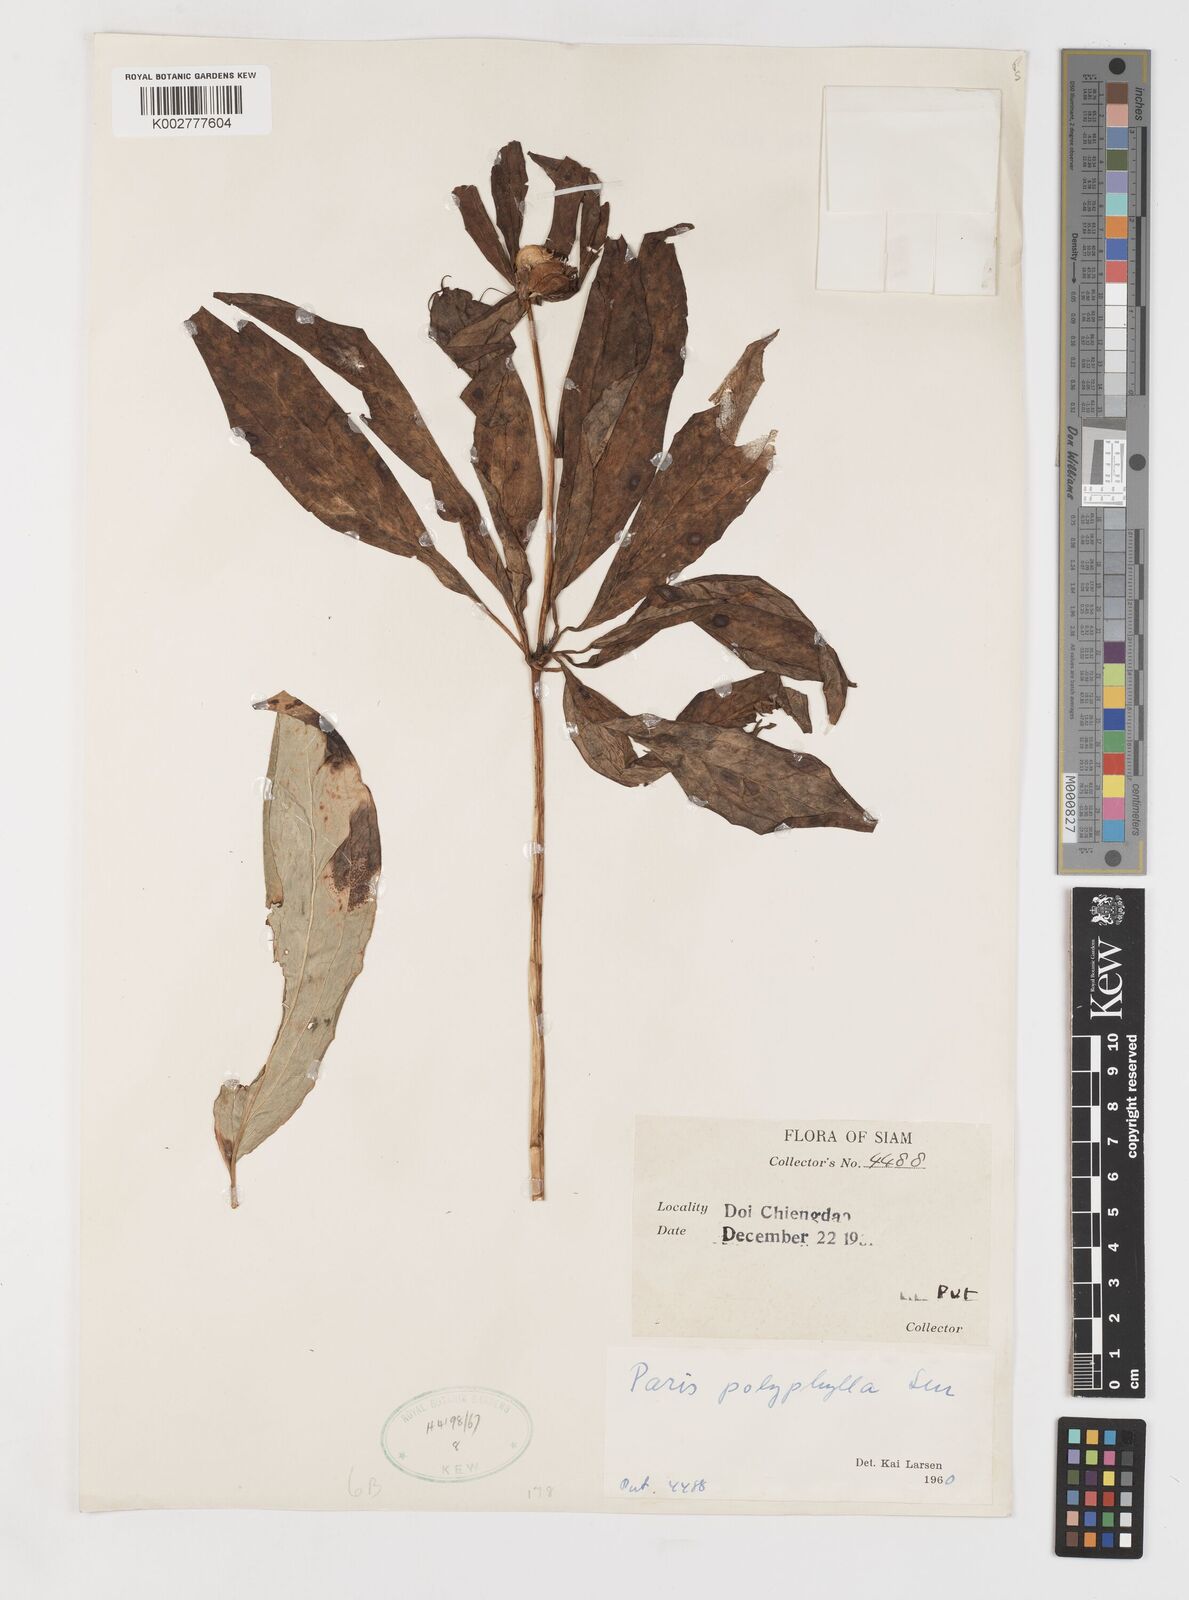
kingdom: Plantae
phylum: Tracheophyta
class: Liliopsida
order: Liliales
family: Melanthiaceae
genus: Paris
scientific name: Paris polyphylla
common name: Love apple
